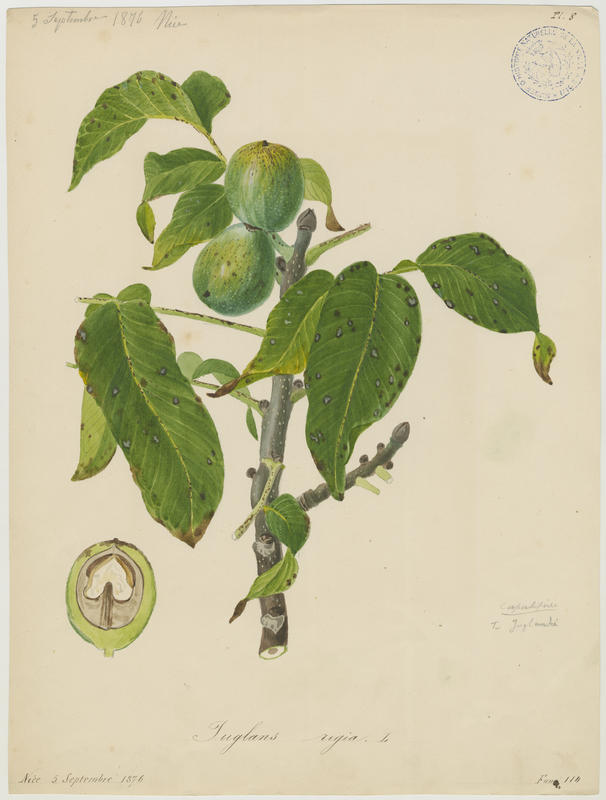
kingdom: Plantae
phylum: Tracheophyta
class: Magnoliopsida
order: Fagales
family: Juglandaceae
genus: Juglans
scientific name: Juglans regia
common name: Walnut
